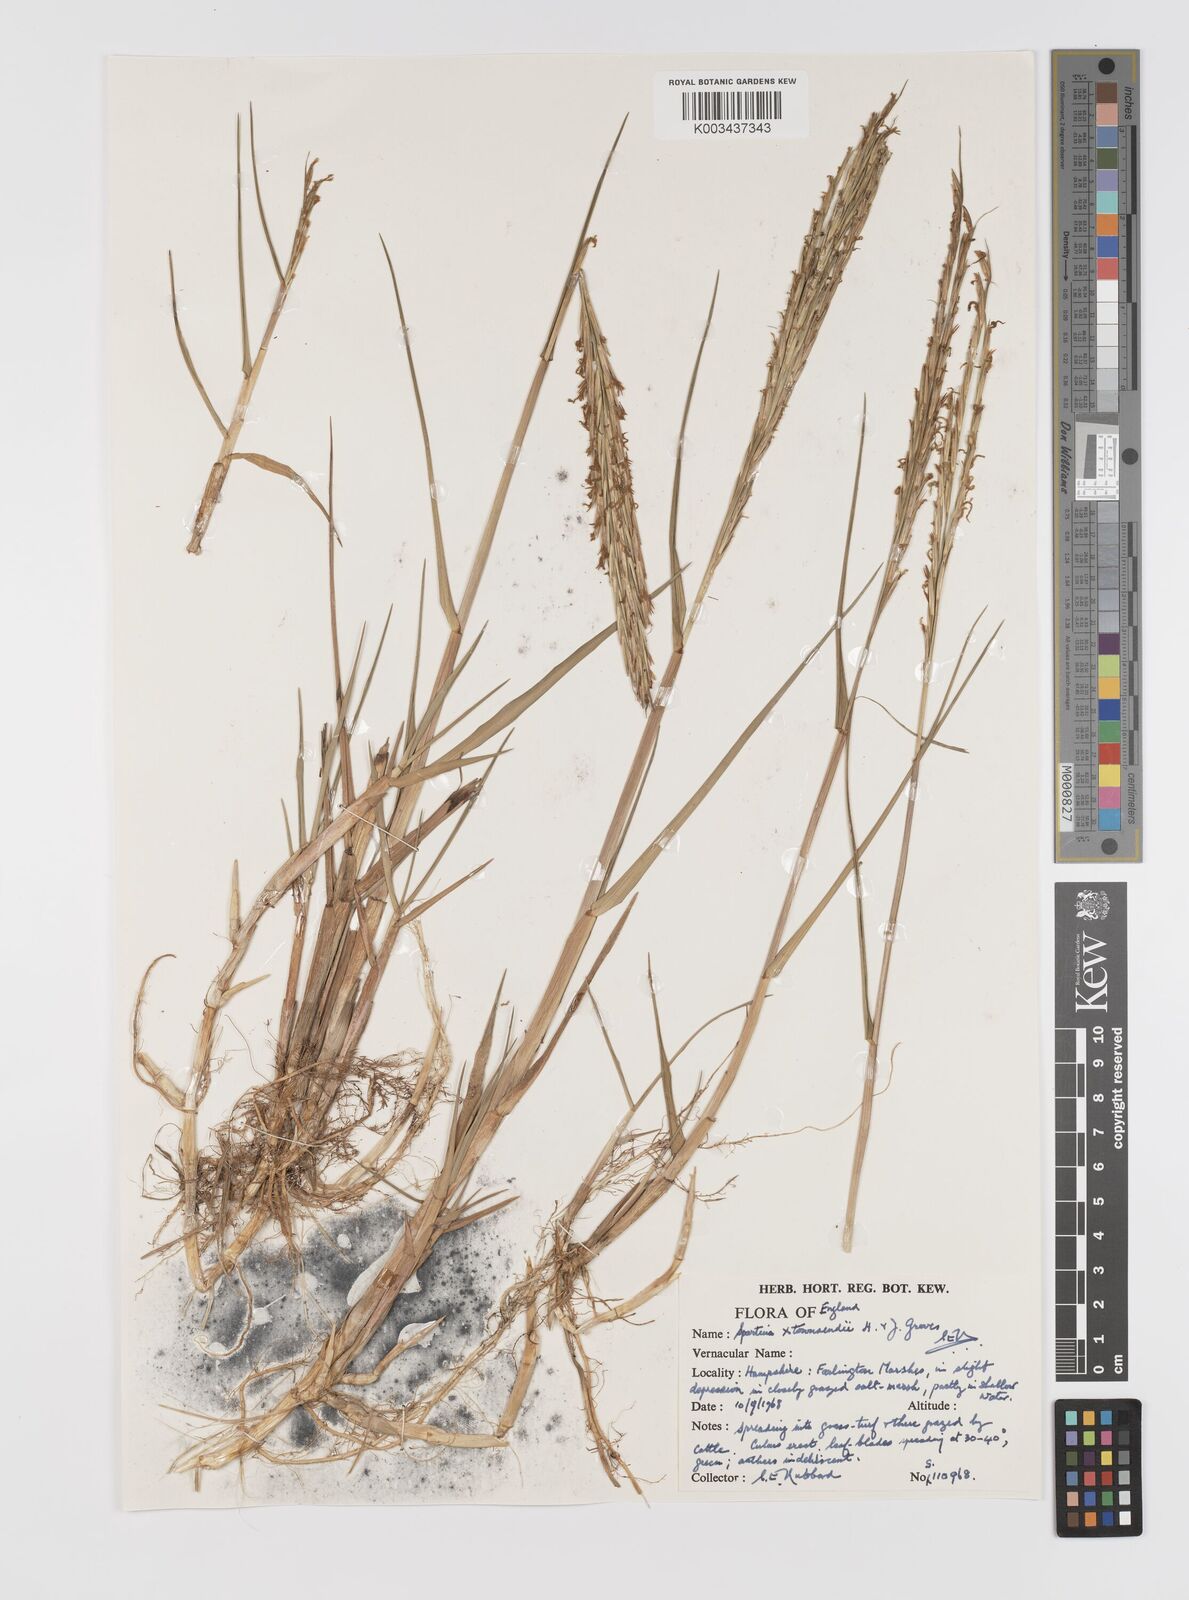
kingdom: Plantae
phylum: Tracheophyta
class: Liliopsida
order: Poales
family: Poaceae
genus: Sporobolus
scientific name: Sporobolus townsendii
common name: Townsend's cordgrass
